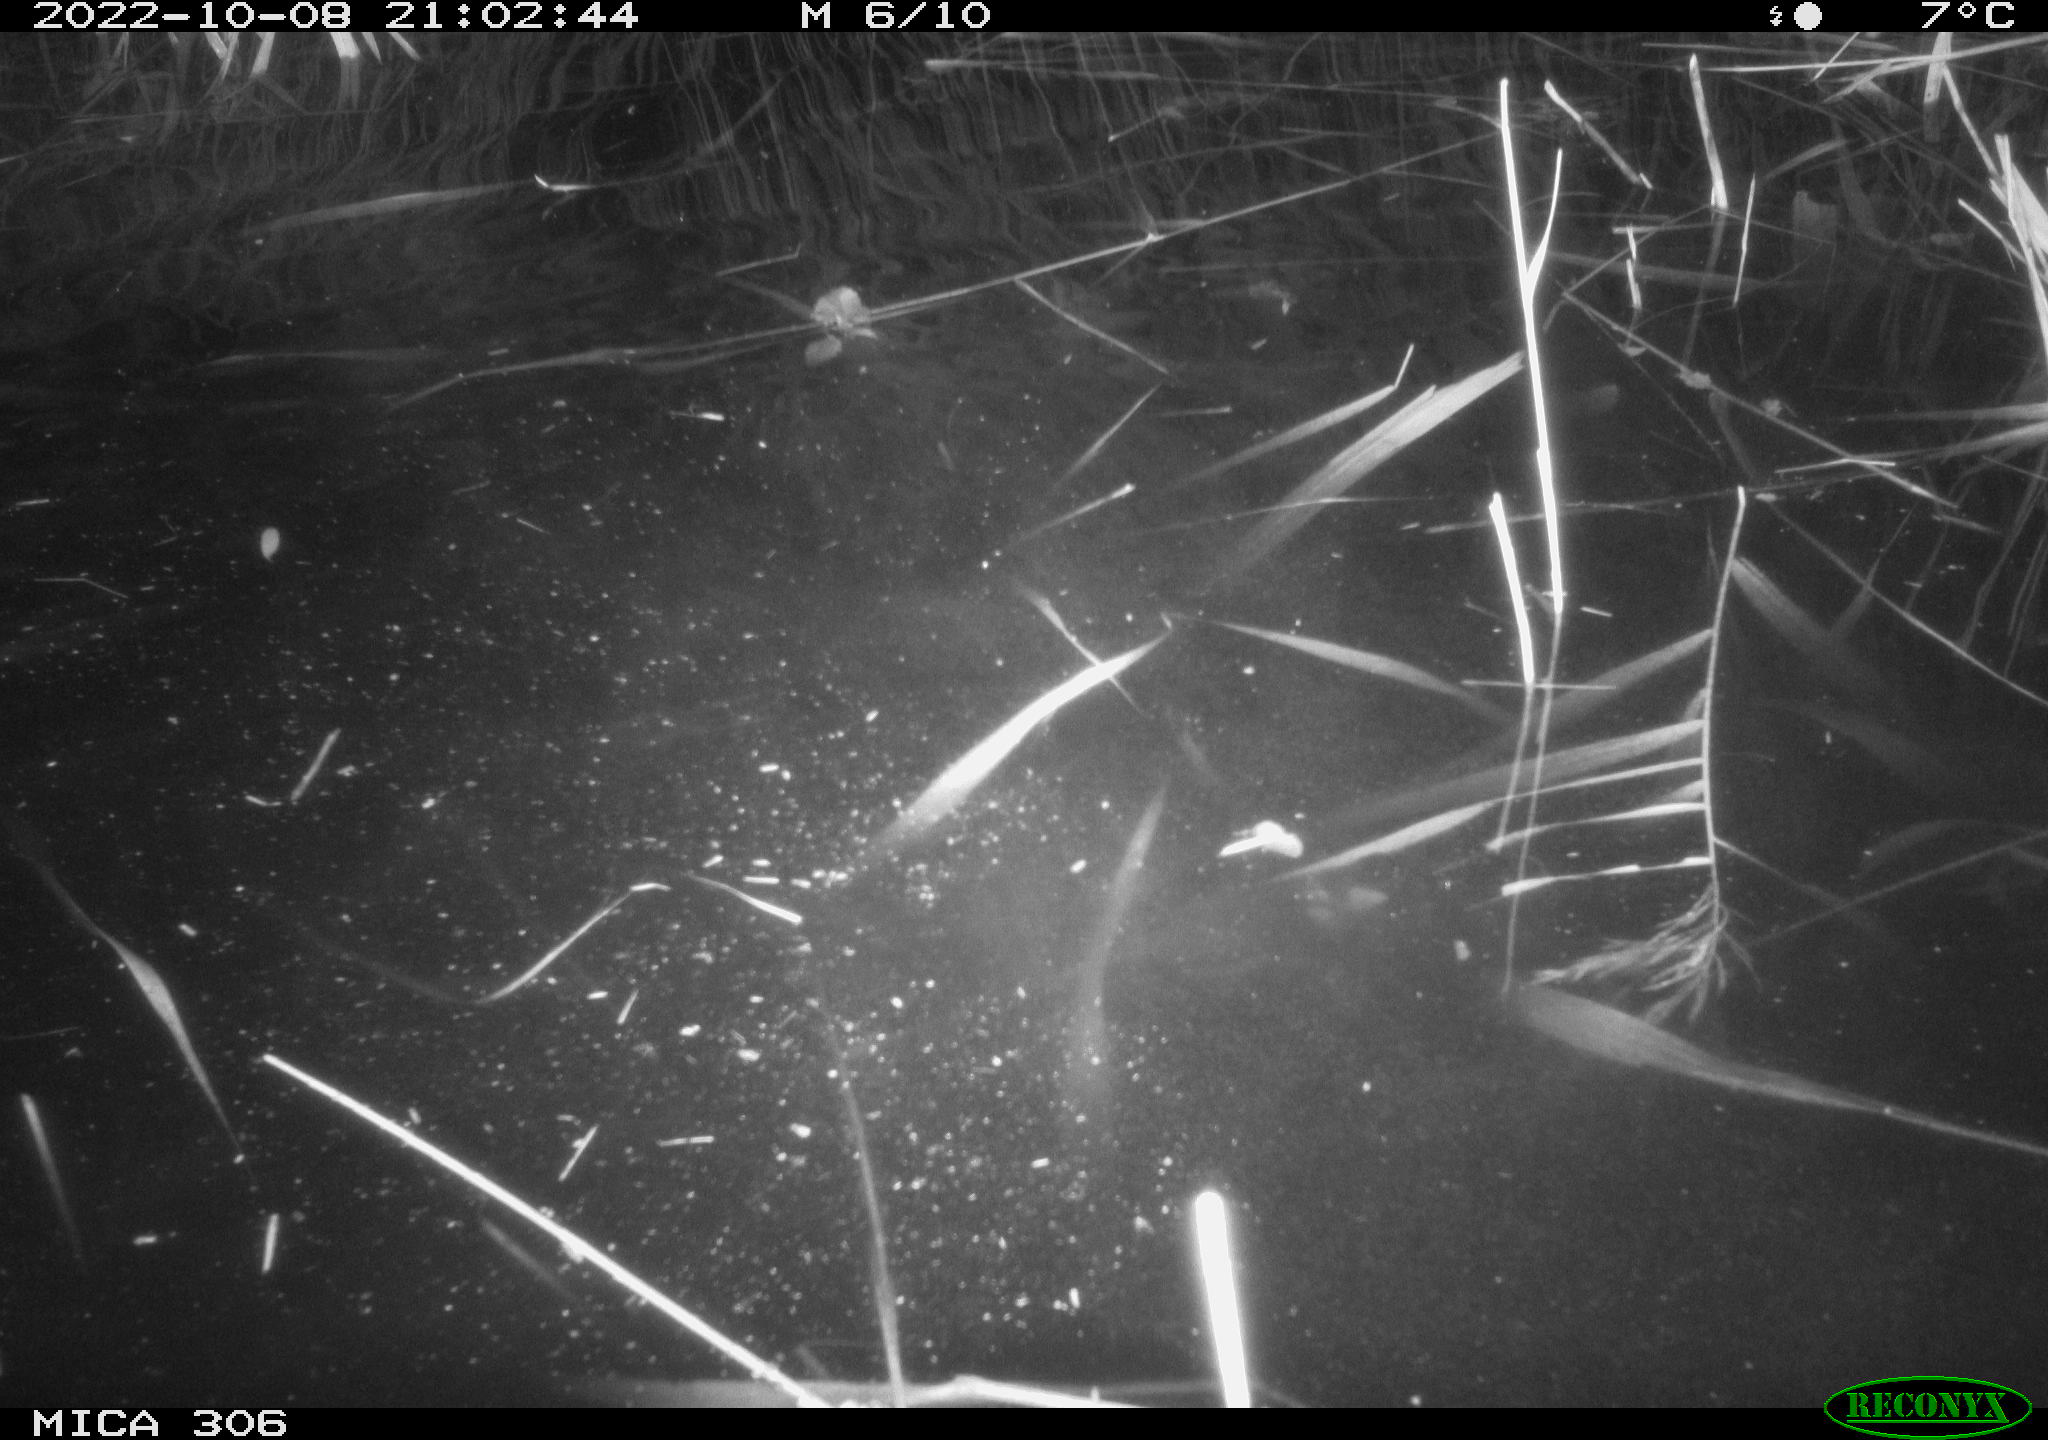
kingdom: Animalia
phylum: Chordata
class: Mammalia
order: Rodentia
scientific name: Rodentia
